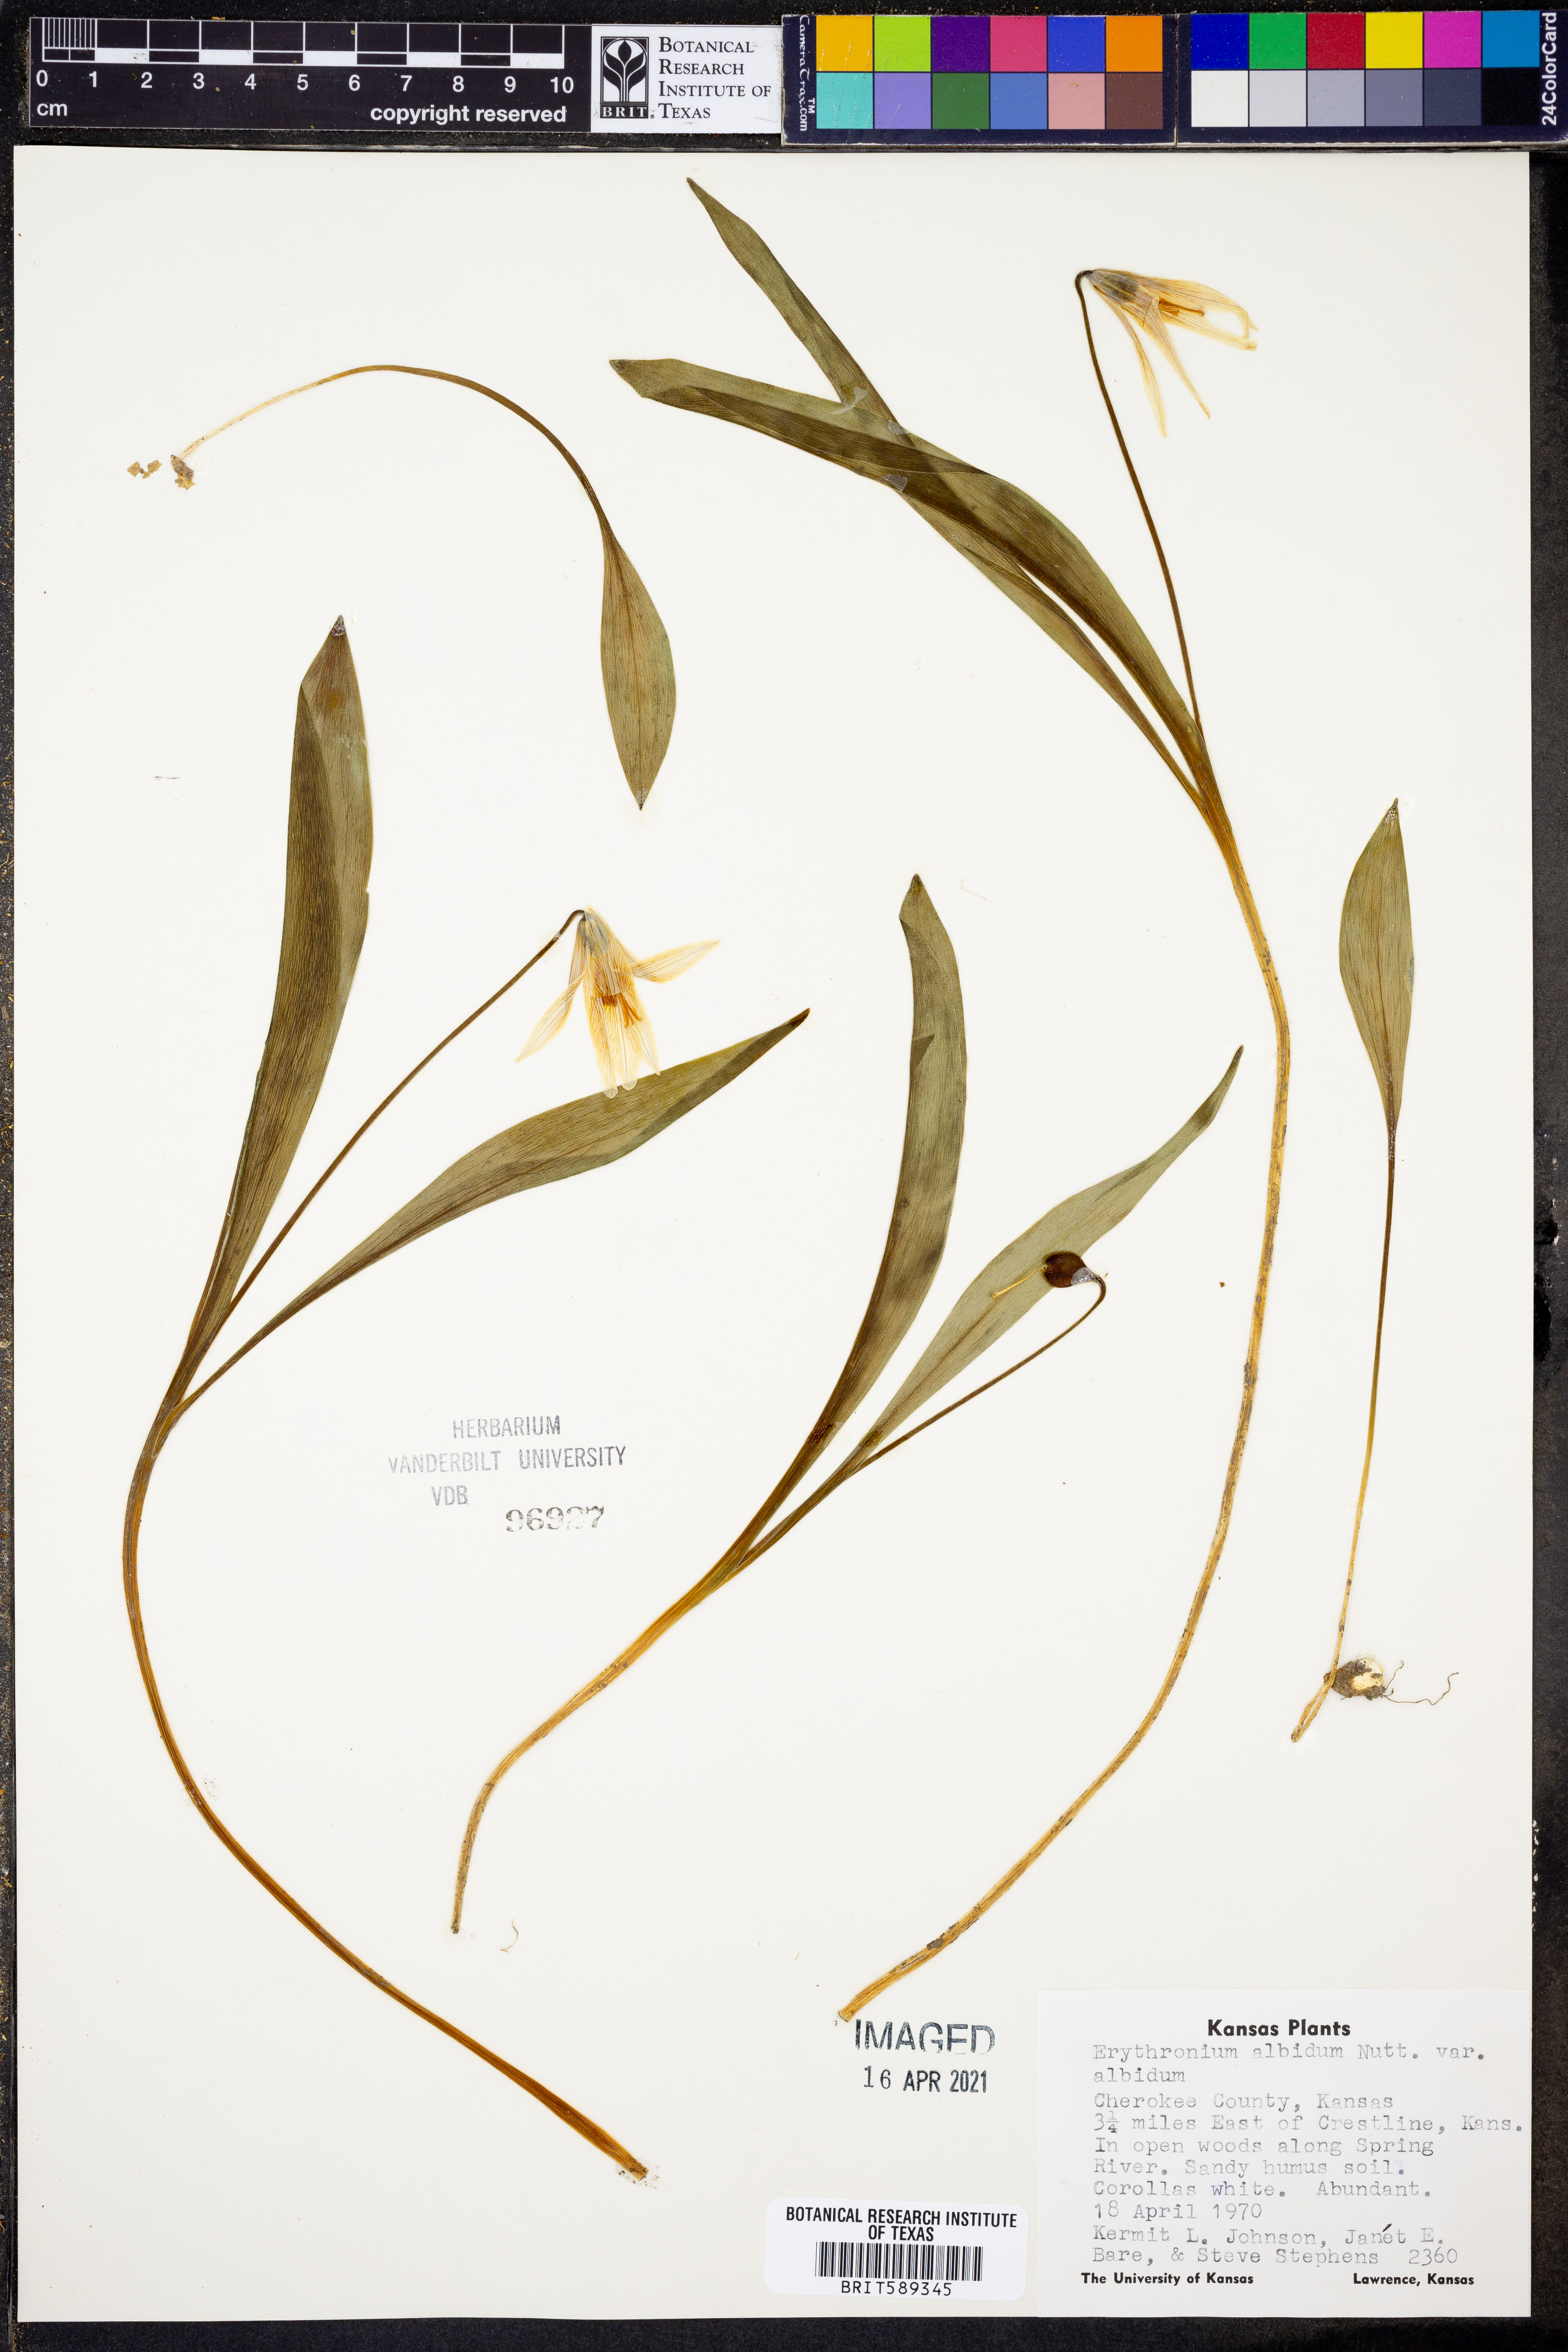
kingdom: Plantae
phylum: Tracheophyta
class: Liliopsida
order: Liliales
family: Liliaceae
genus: Erythronium
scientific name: Erythronium albidum
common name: White trout-lily
